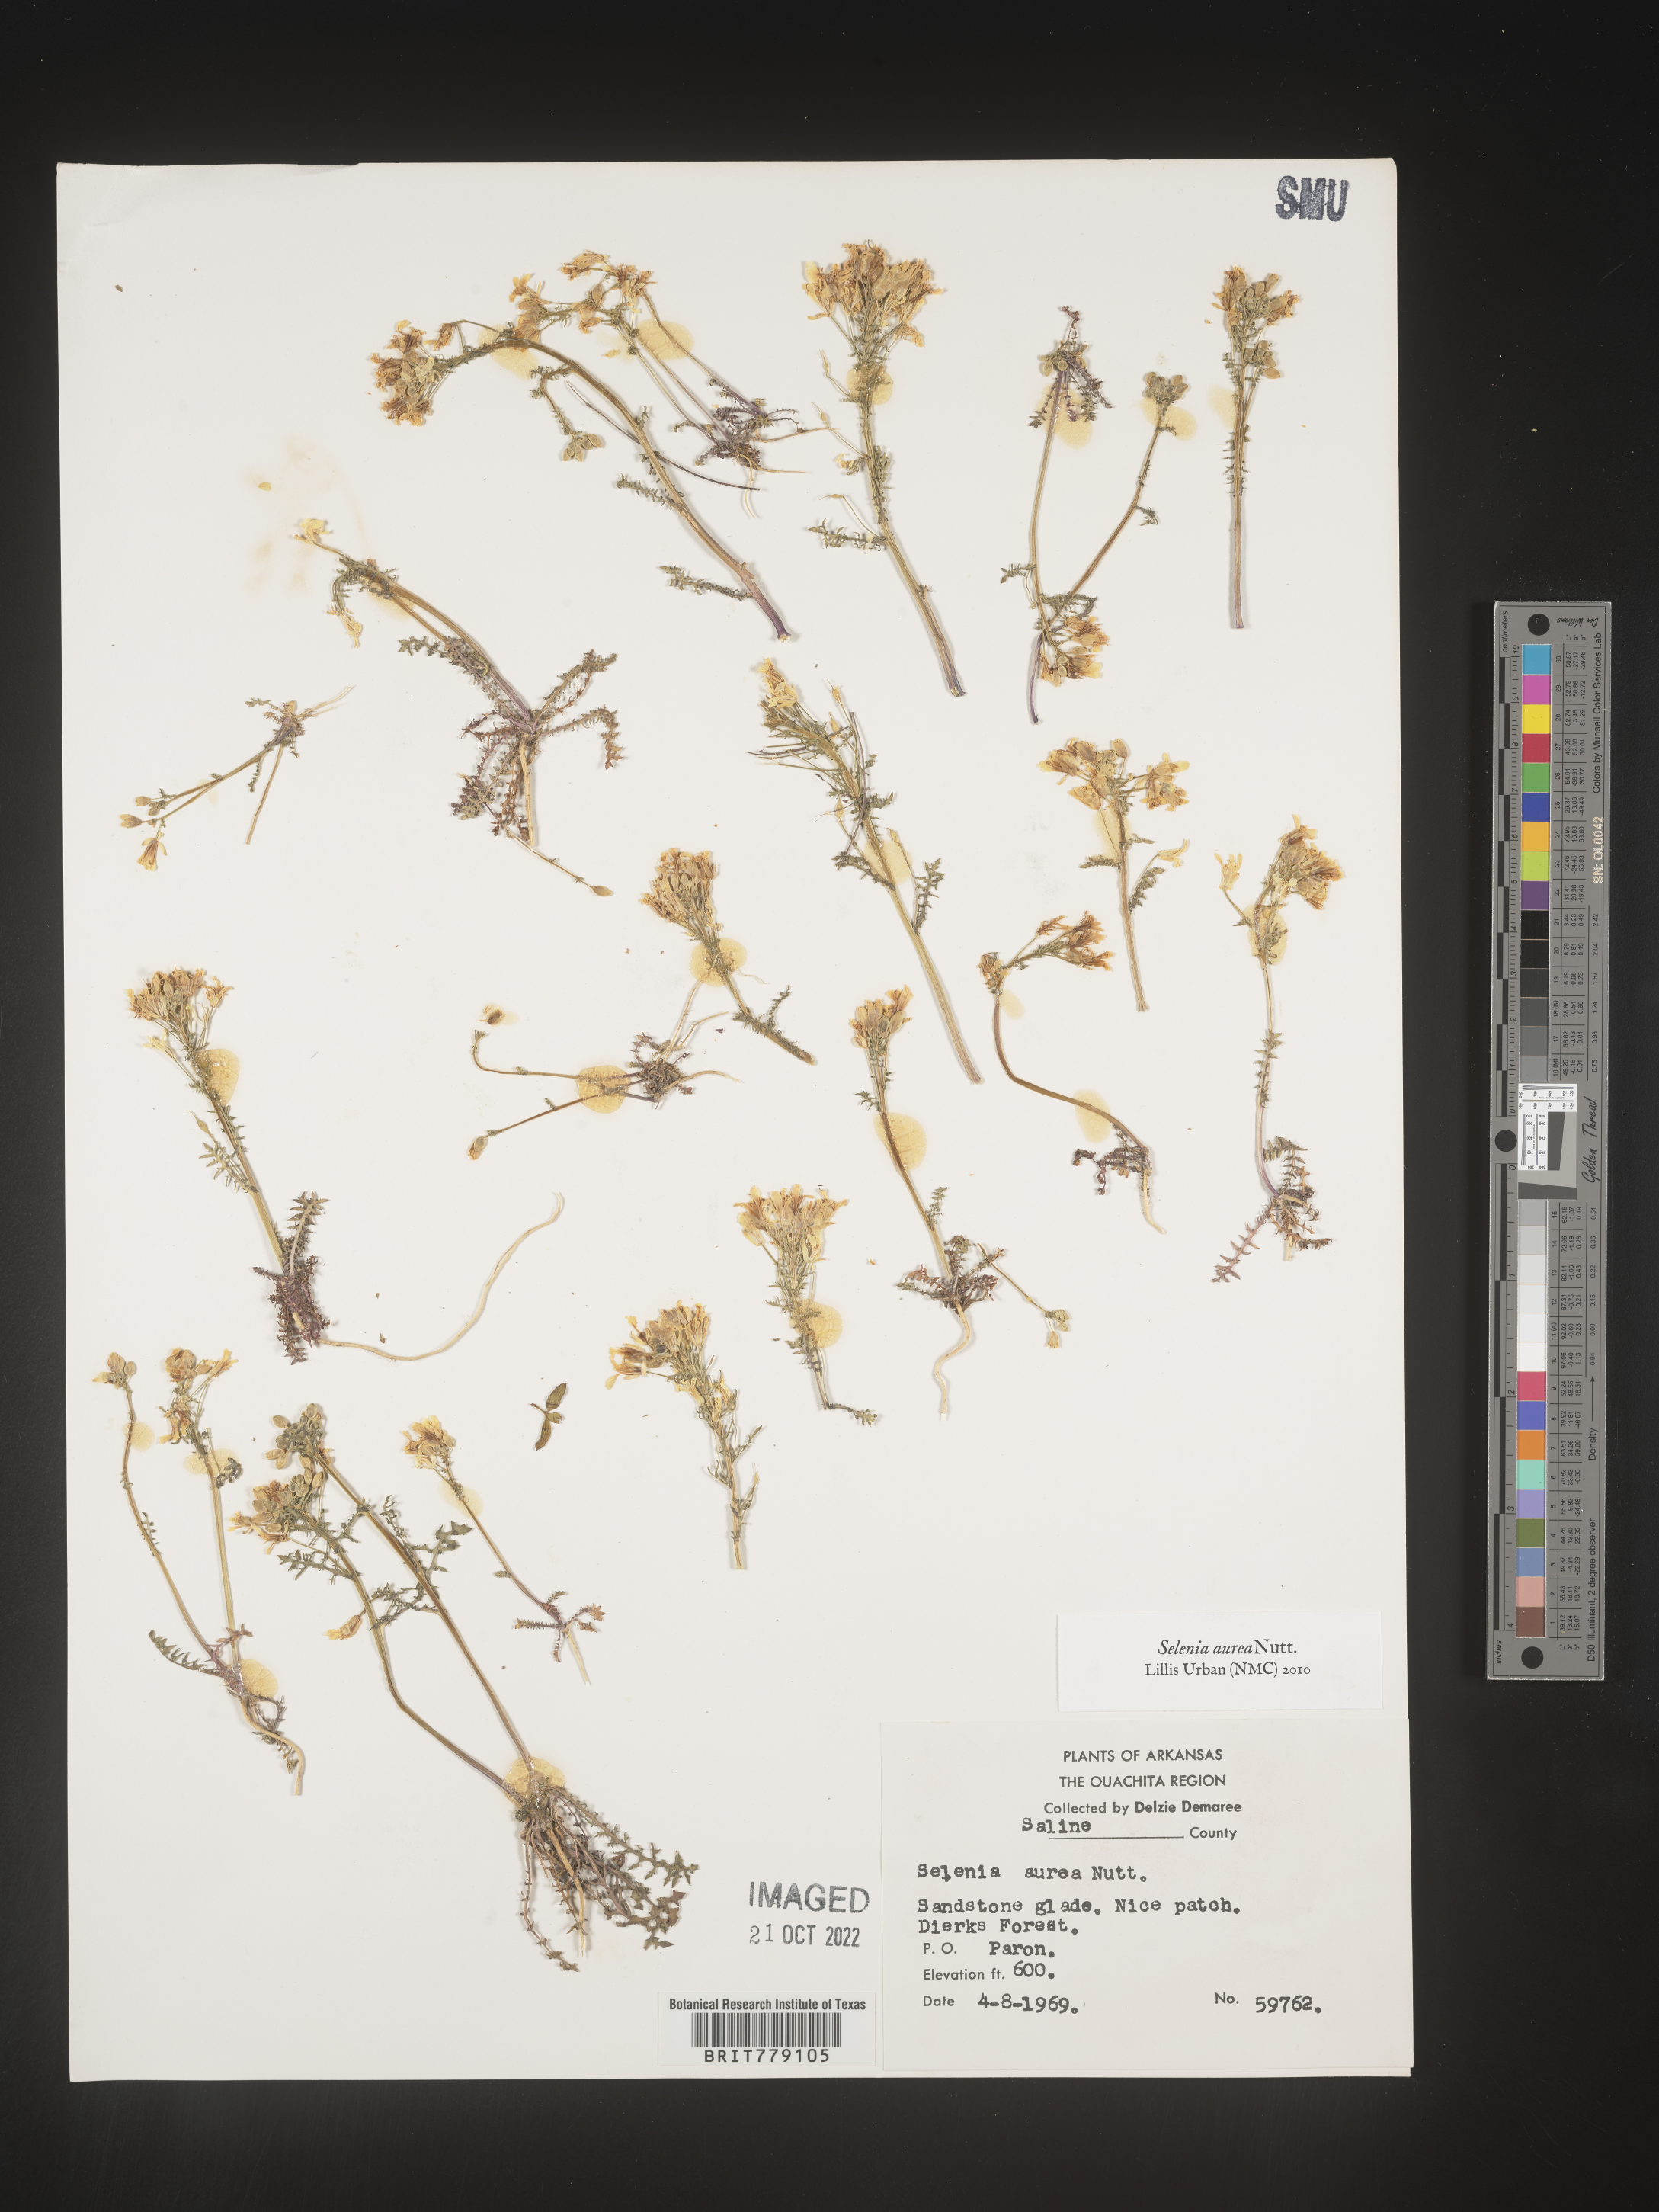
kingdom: Plantae
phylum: Tracheophyta
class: Magnoliopsida
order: Brassicales
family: Brassicaceae
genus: Selenia
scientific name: Selenia
